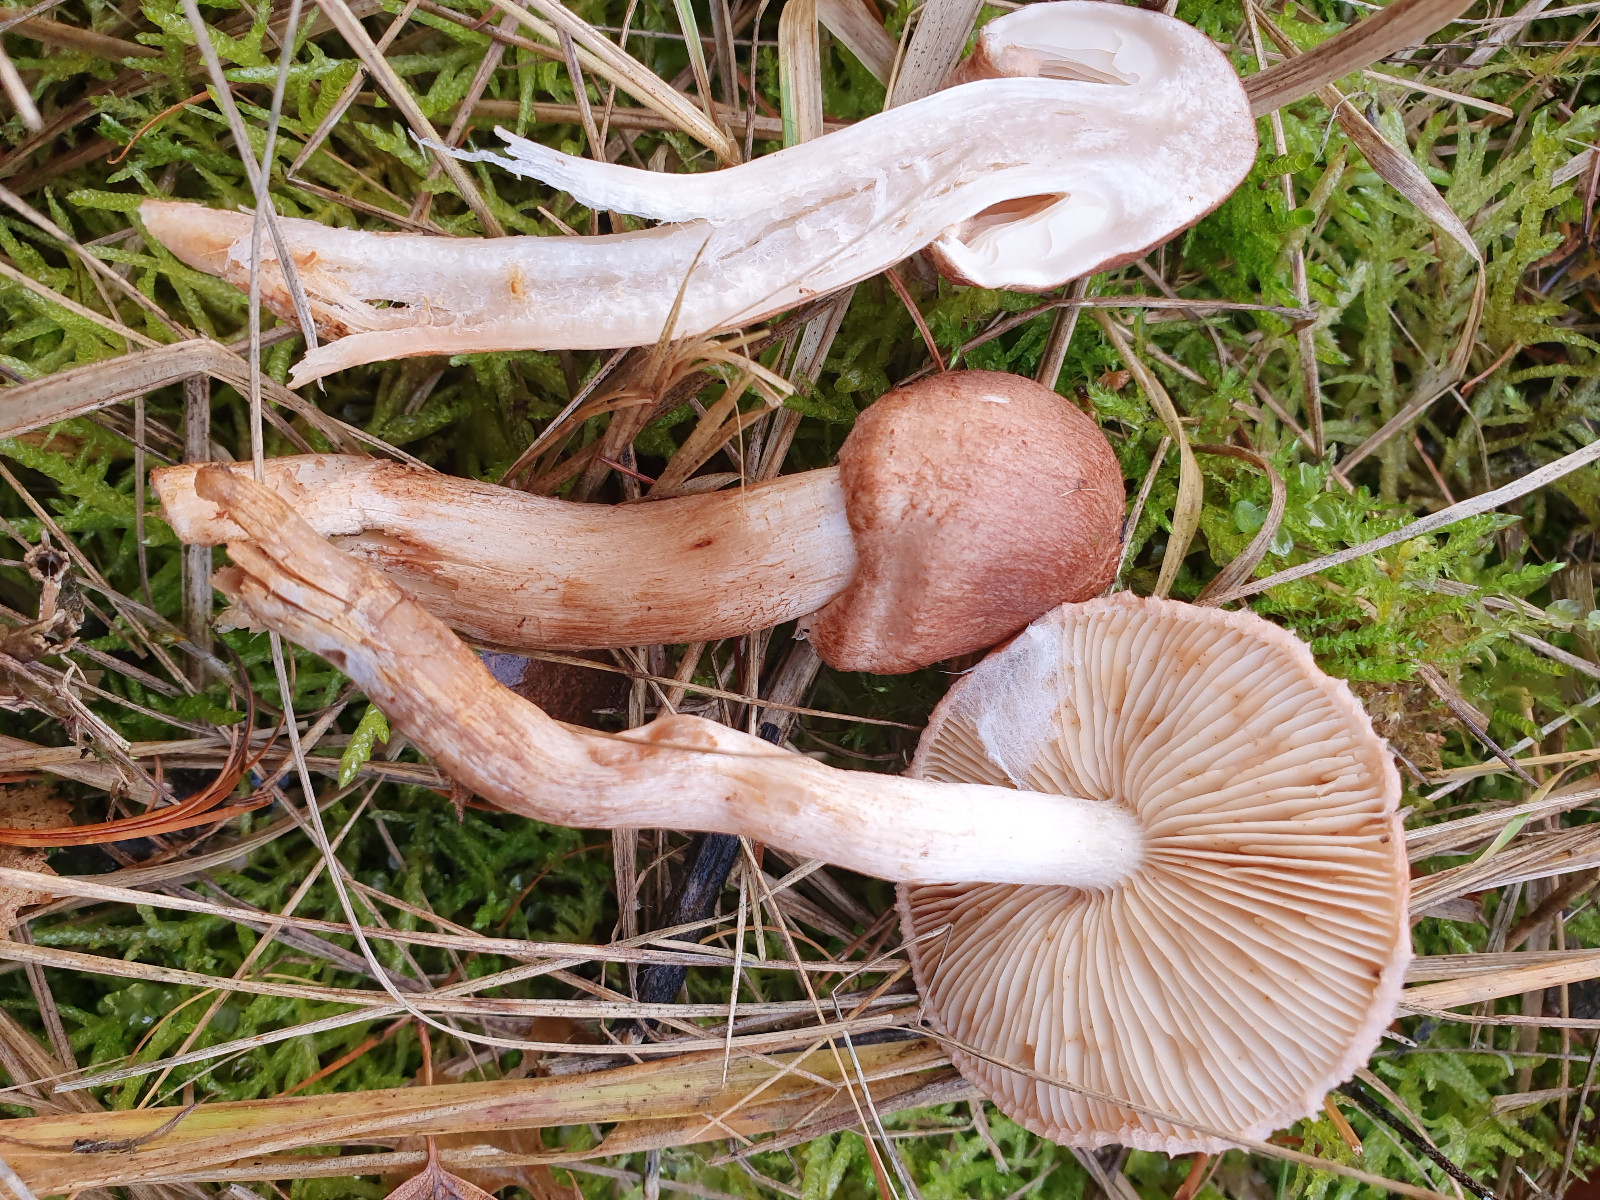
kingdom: Fungi
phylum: Basidiomycota
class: Agaricomycetes
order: Agaricales
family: Tricholomataceae
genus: Tricholoma
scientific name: Tricholoma vaccinum
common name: ko-ridderhat
